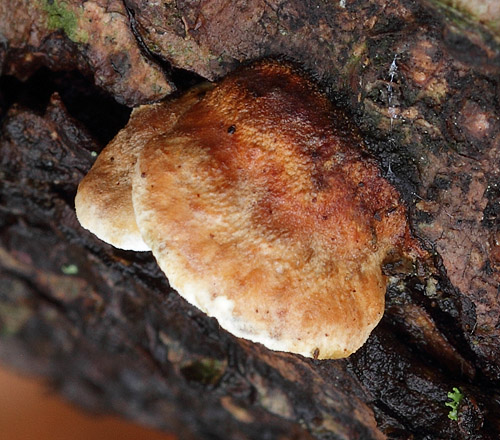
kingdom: Fungi
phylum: Basidiomycota
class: Agaricomycetes
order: Polyporales
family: Incrustoporiaceae
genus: Skeletocutis
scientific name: Skeletocutis nemoralis
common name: stor krystalporesvamp
